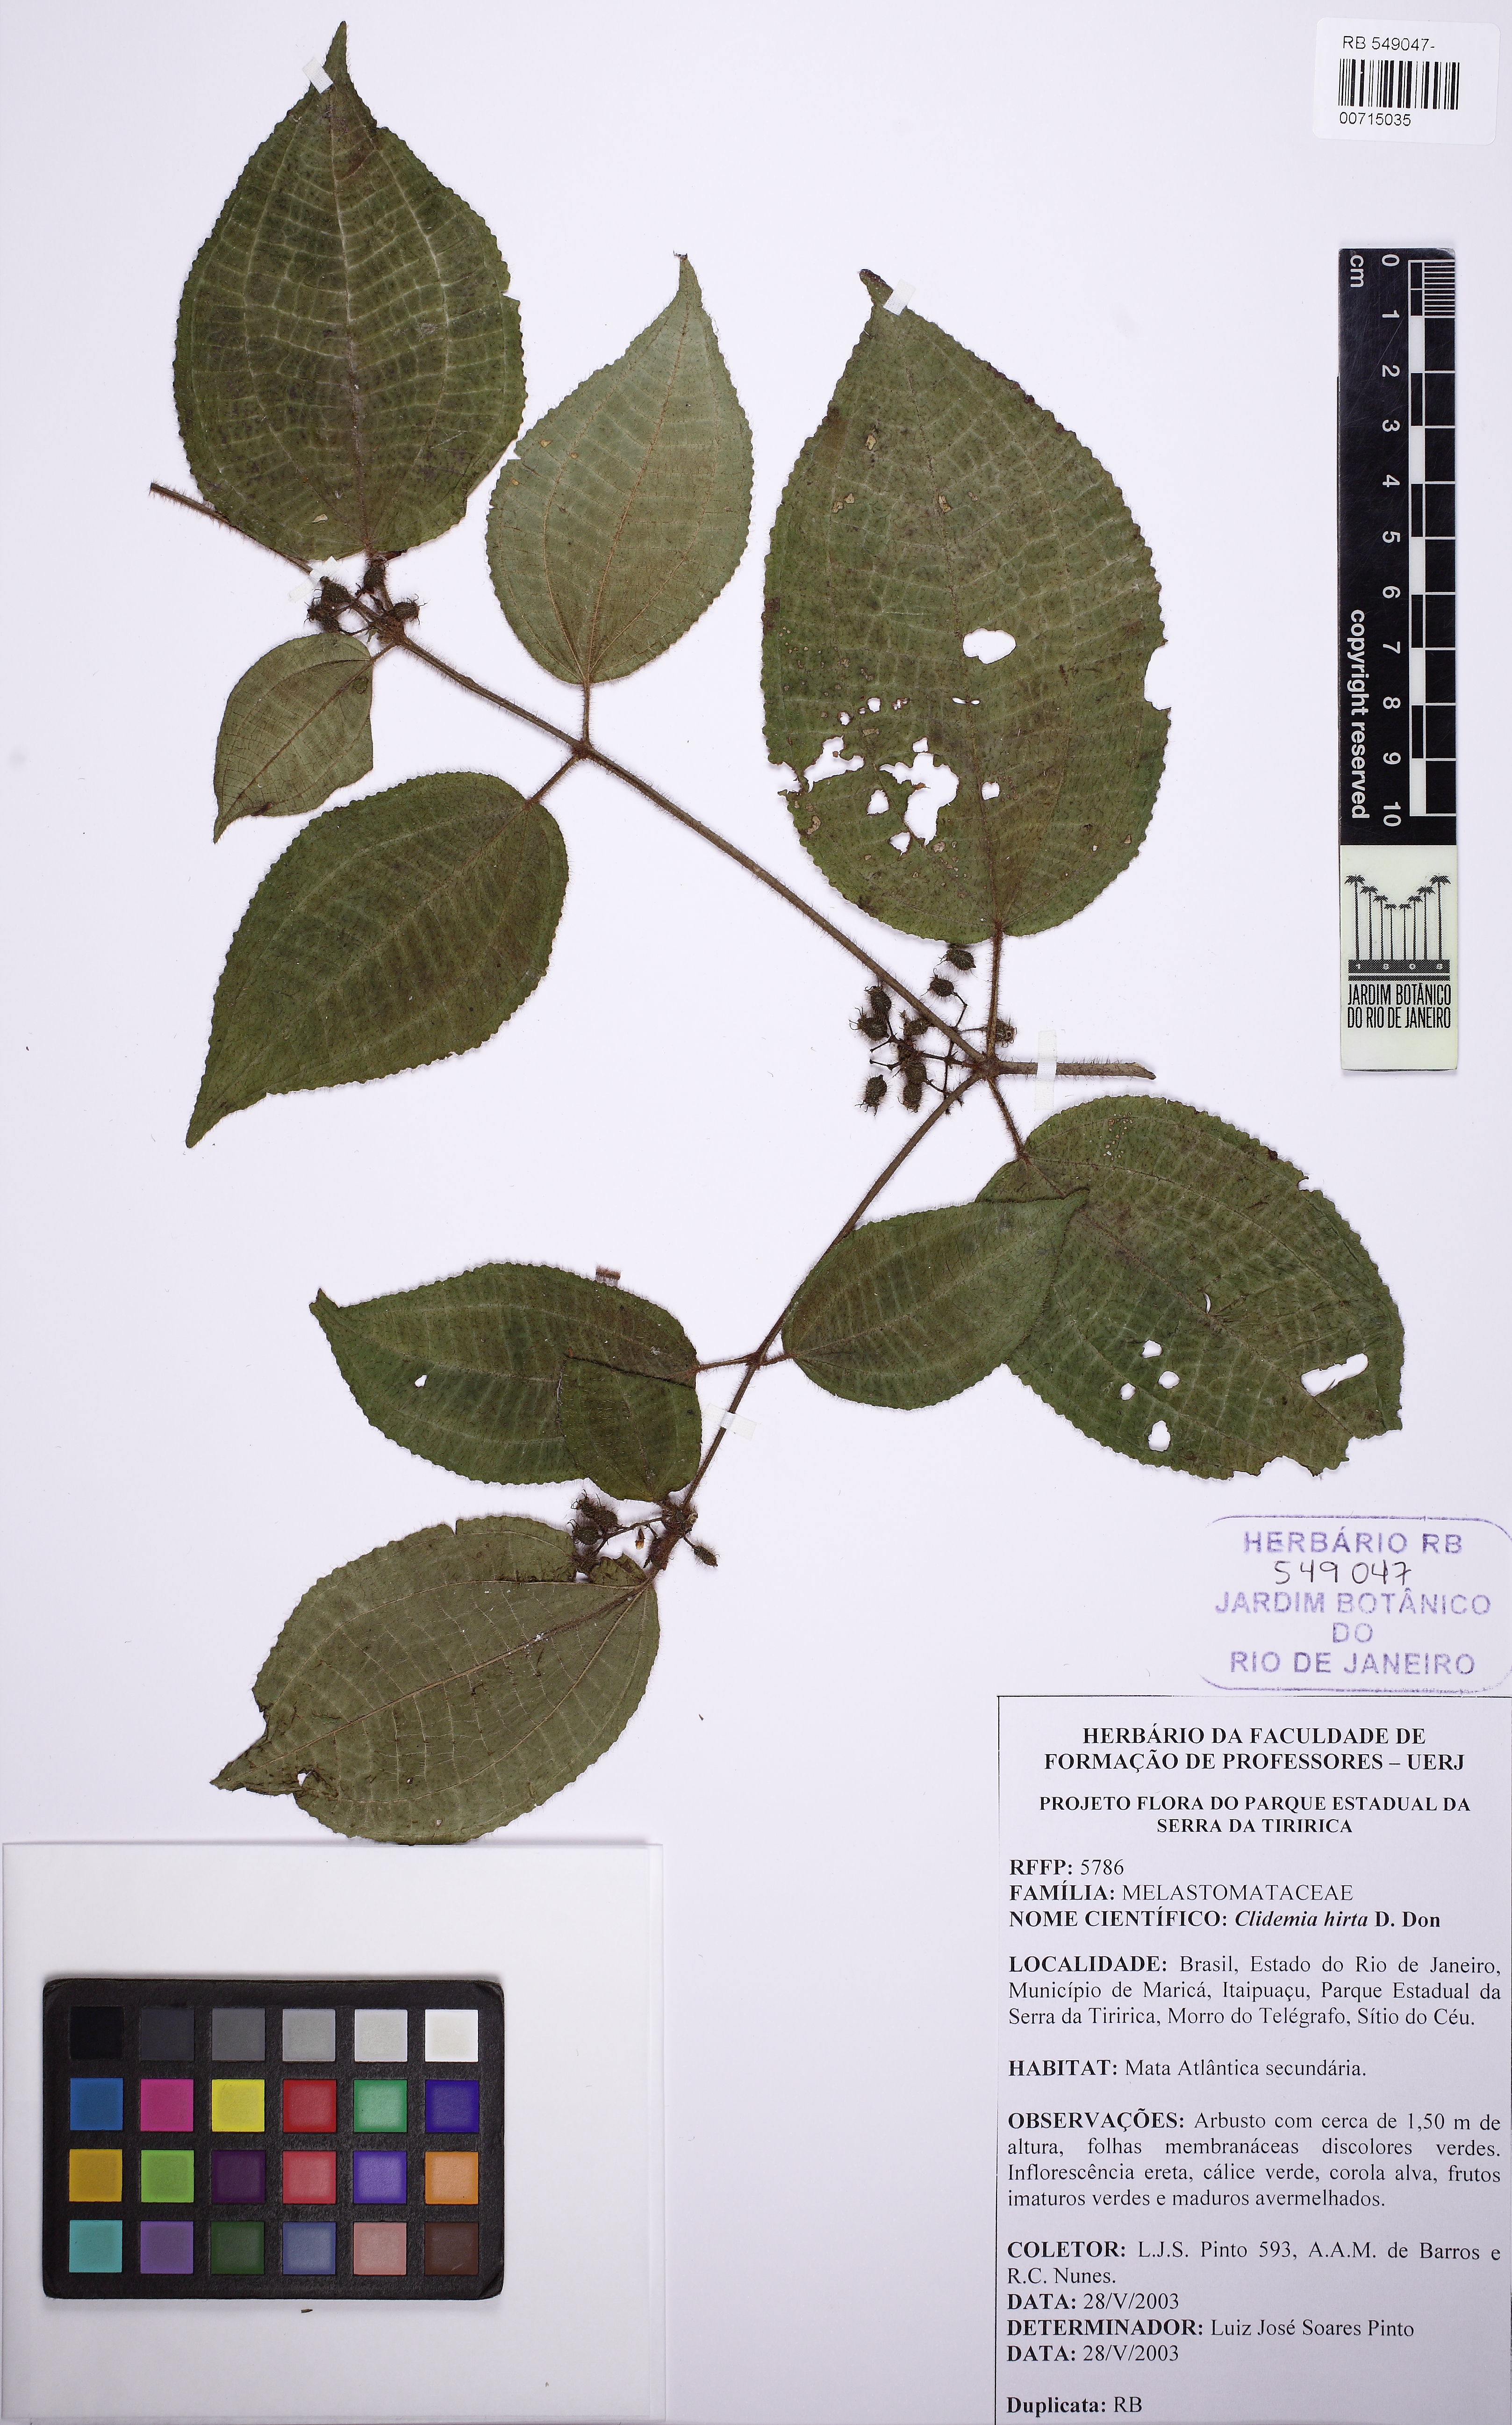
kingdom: Plantae
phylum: Tracheophyta
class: Magnoliopsida
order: Myrtales
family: Melastomataceae
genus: Miconia
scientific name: Miconia crenata
